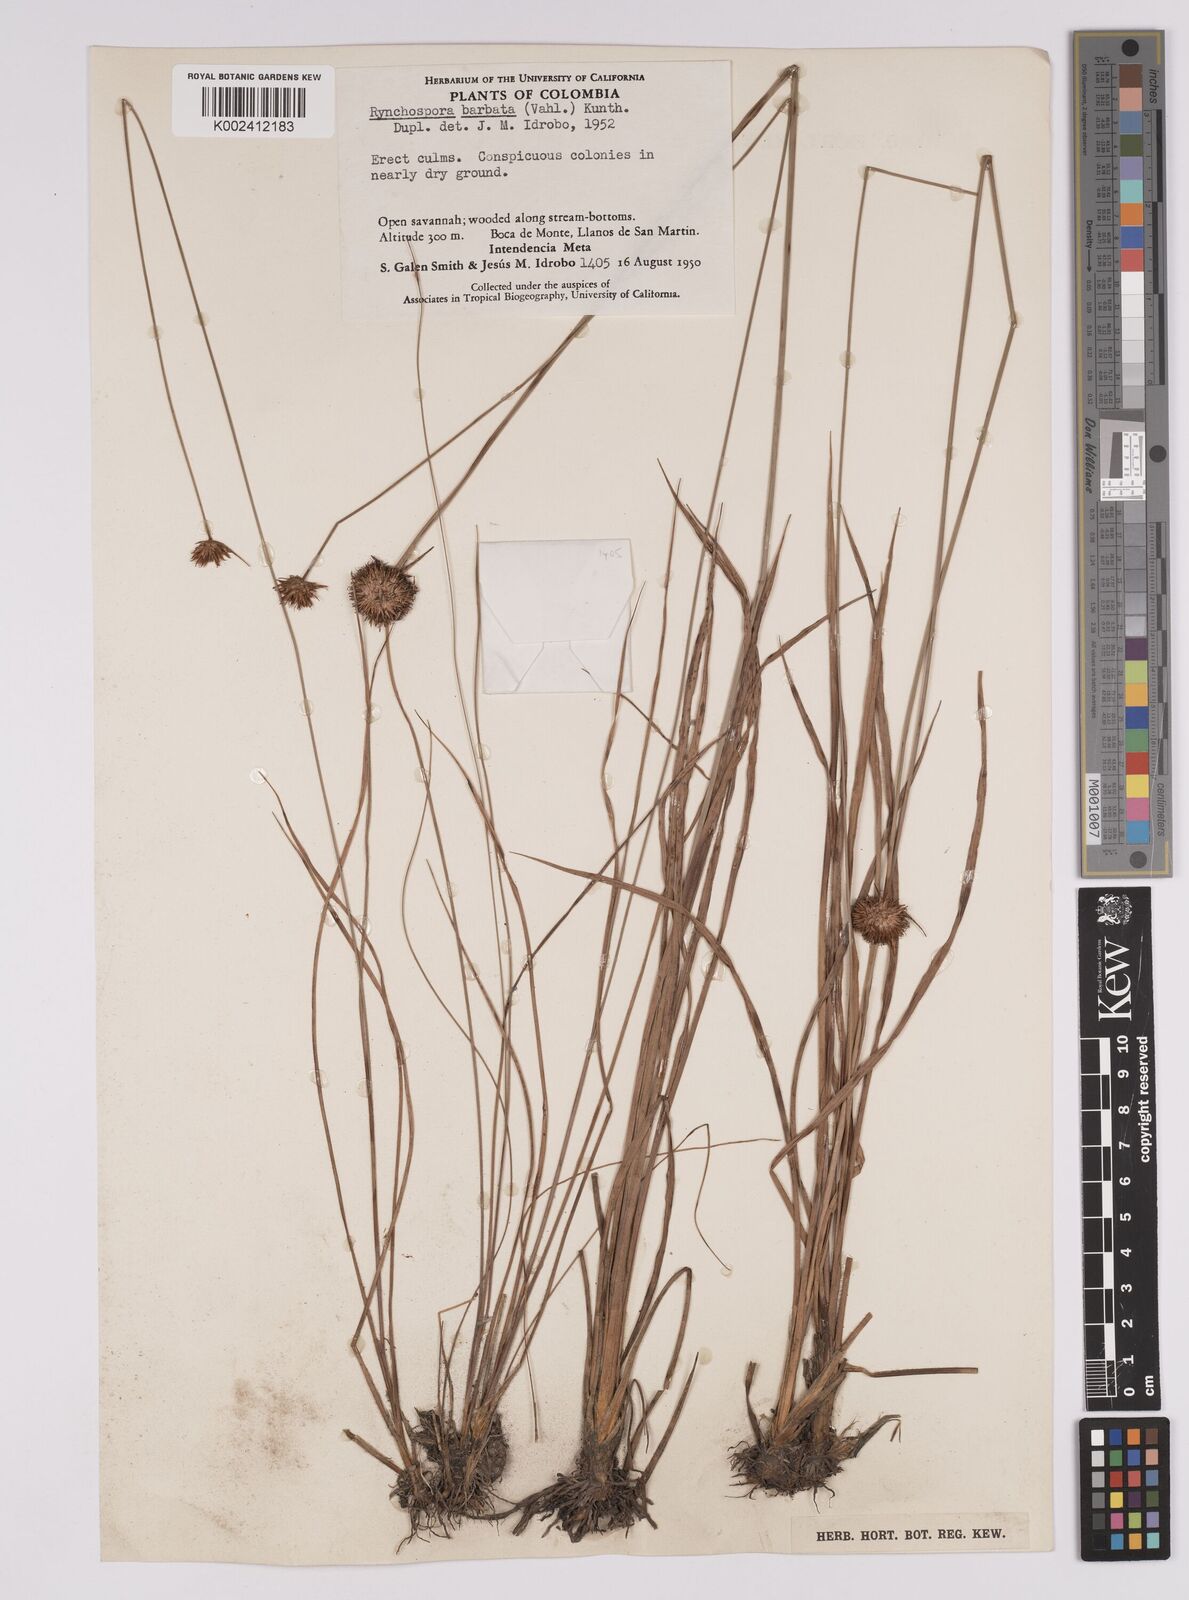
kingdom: Plantae
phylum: Tracheophyta
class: Liliopsida
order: Poales
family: Cyperaceae
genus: Rhynchospora
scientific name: Rhynchospora barbata
